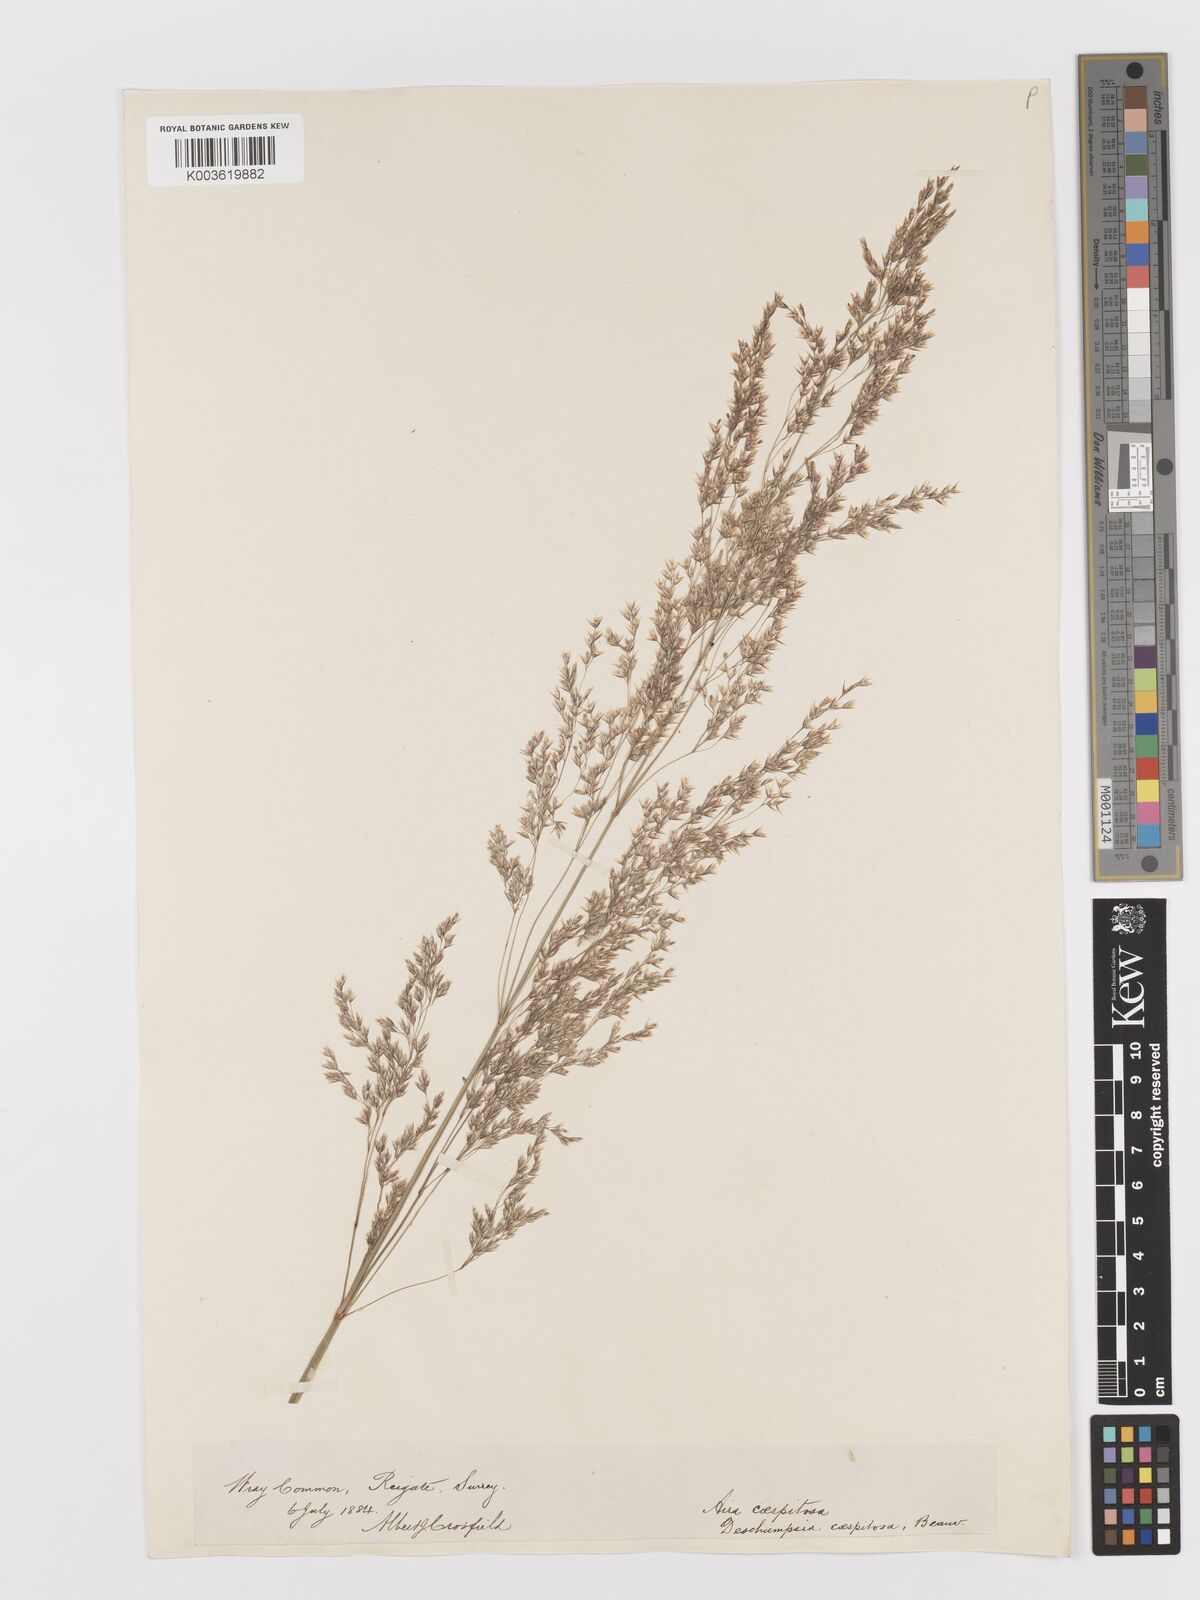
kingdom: Plantae
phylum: Tracheophyta
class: Liliopsida
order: Poales
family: Poaceae
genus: Deschampsia
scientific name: Deschampsia cespitosa
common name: Tufted hair-grass
